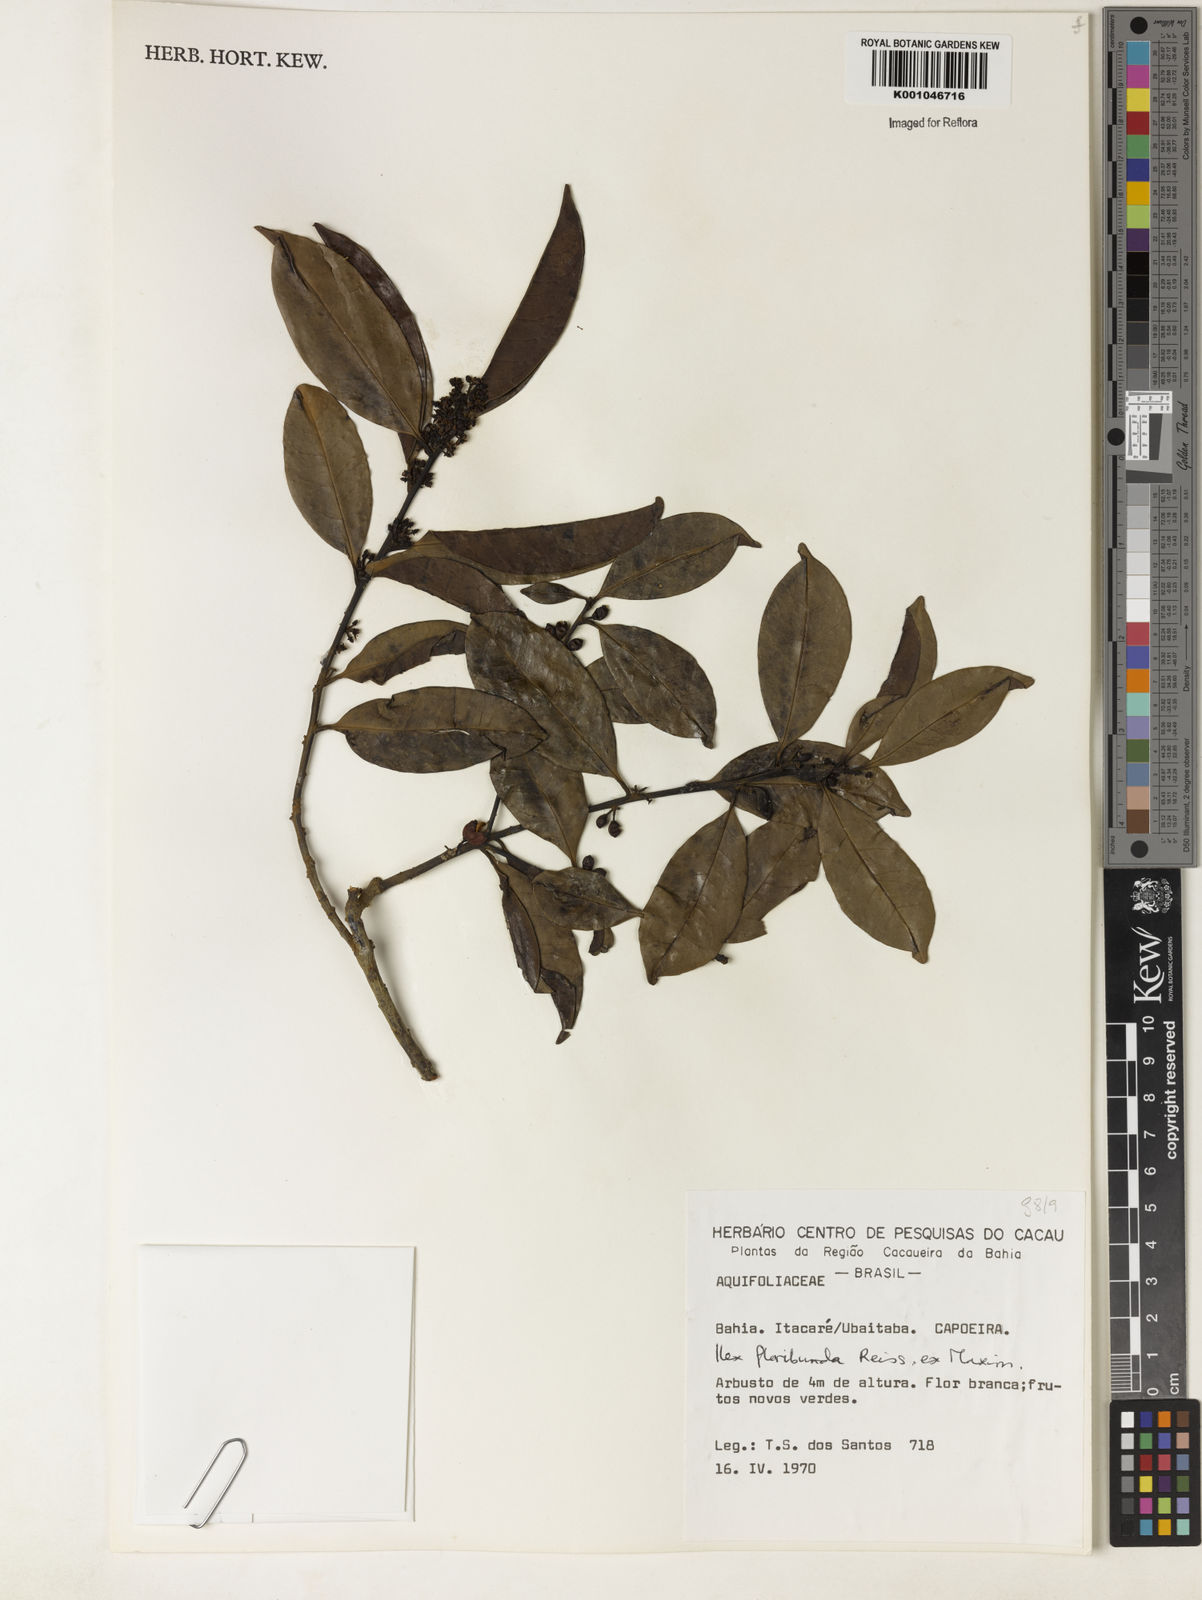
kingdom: Plantae
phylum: Tracheophyta
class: Magnoliopsida
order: Aquifoliales
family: Aquifoliaceae
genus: Ilex
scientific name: Ilex floribunda
